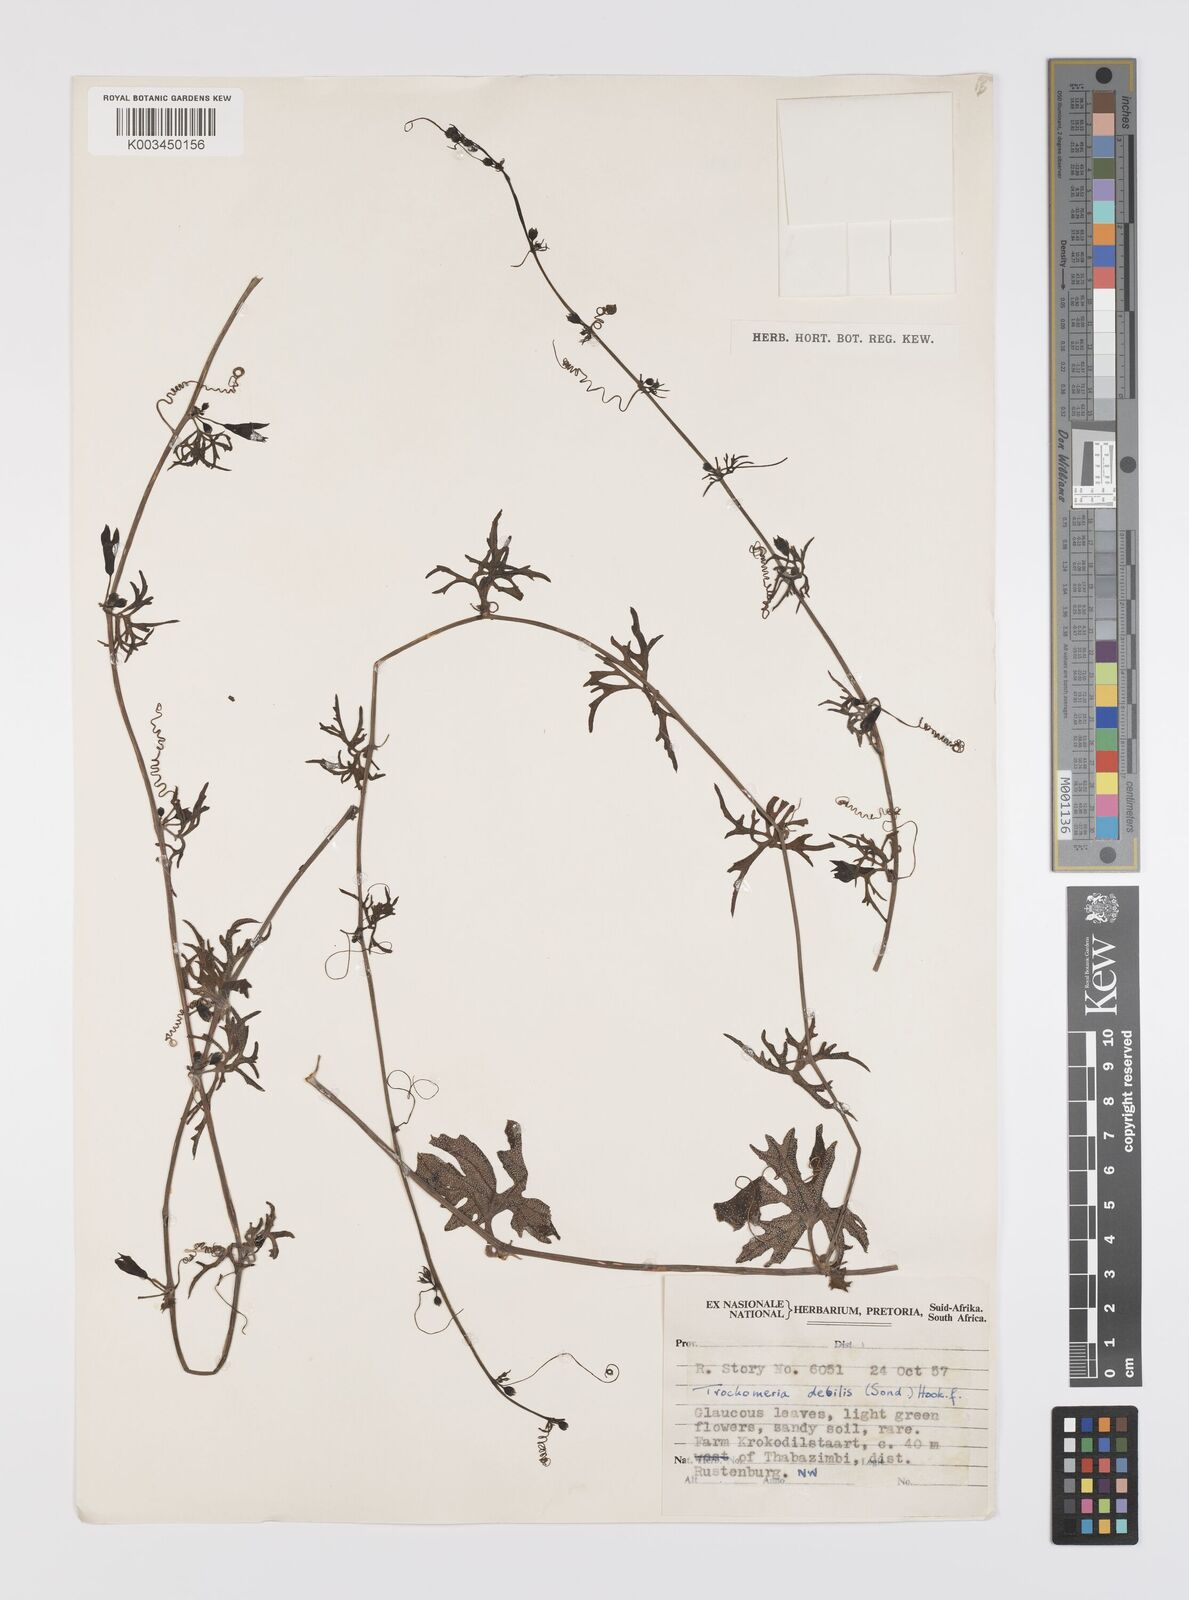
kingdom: Plantae
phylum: Tracheophyta
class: Magnoliopsida
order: Cucurbitales
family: Cucurbitaceae
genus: Trochomeria
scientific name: Trochomeria debilis
